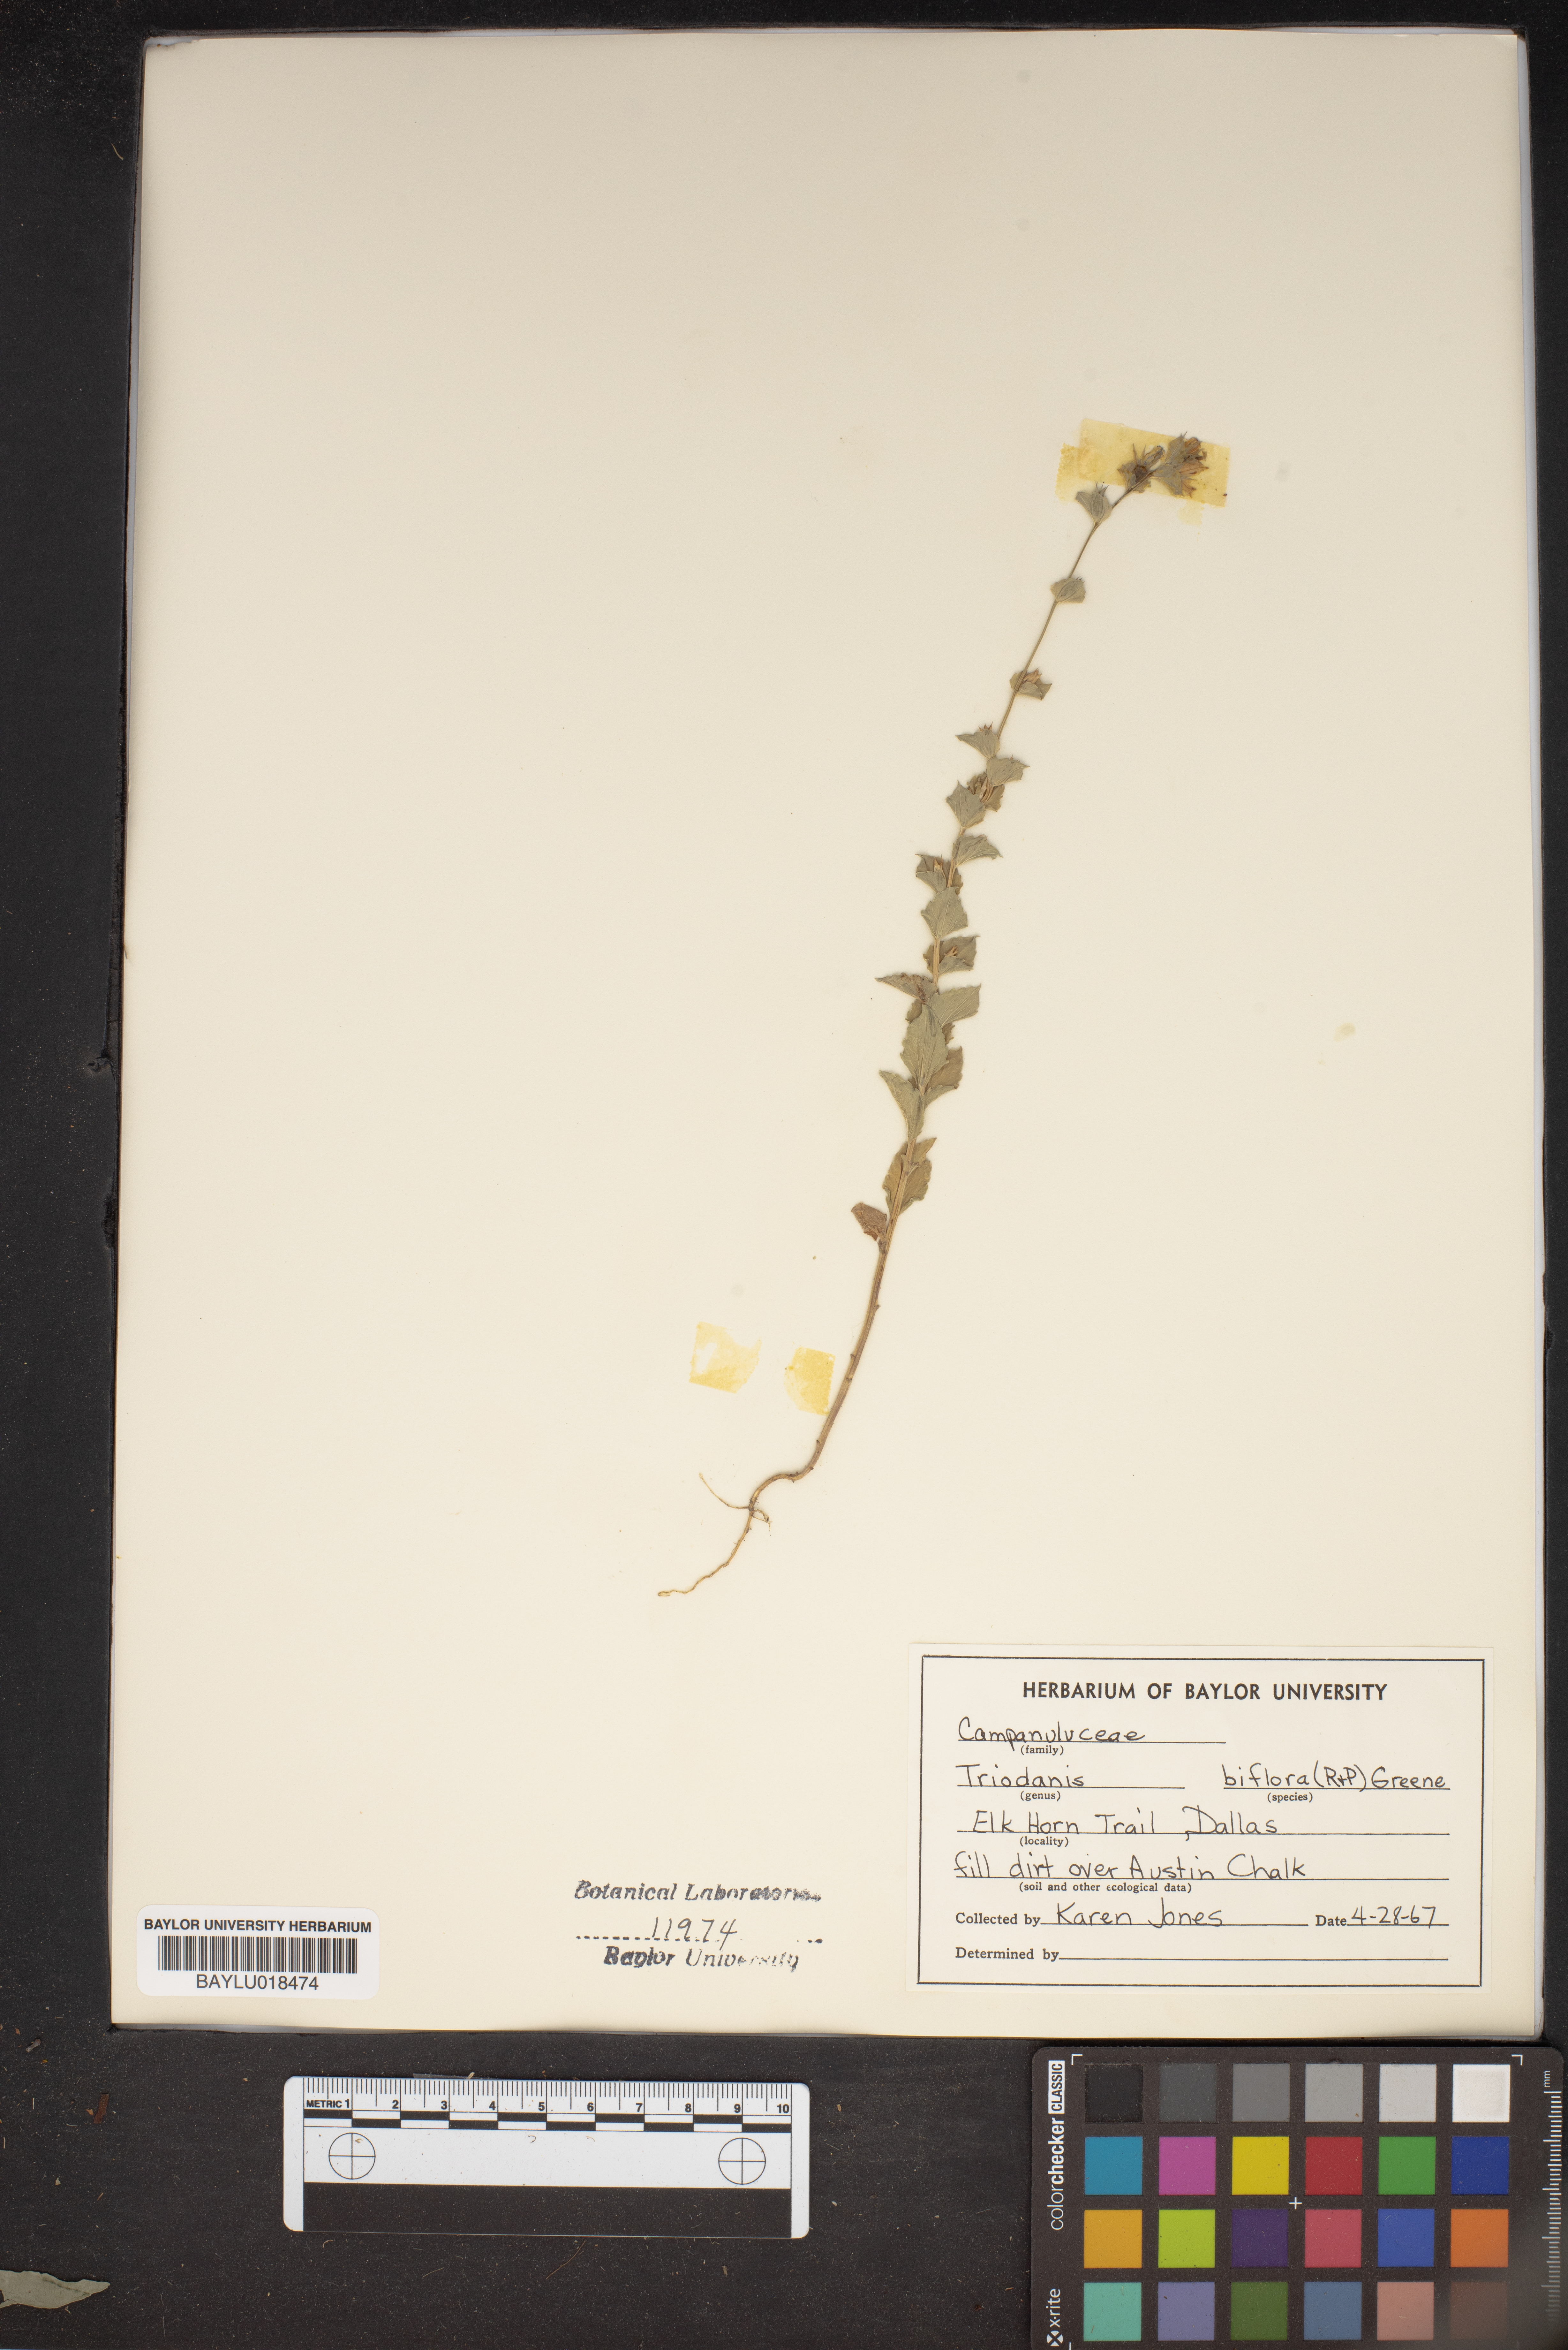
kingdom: Plantae
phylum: Tracheophyta
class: Magnoliopsida
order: Asterales
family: Campanulaceae
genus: Triodanis
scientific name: Triodanis perfoliata
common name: Clasping venus' looking-glass
